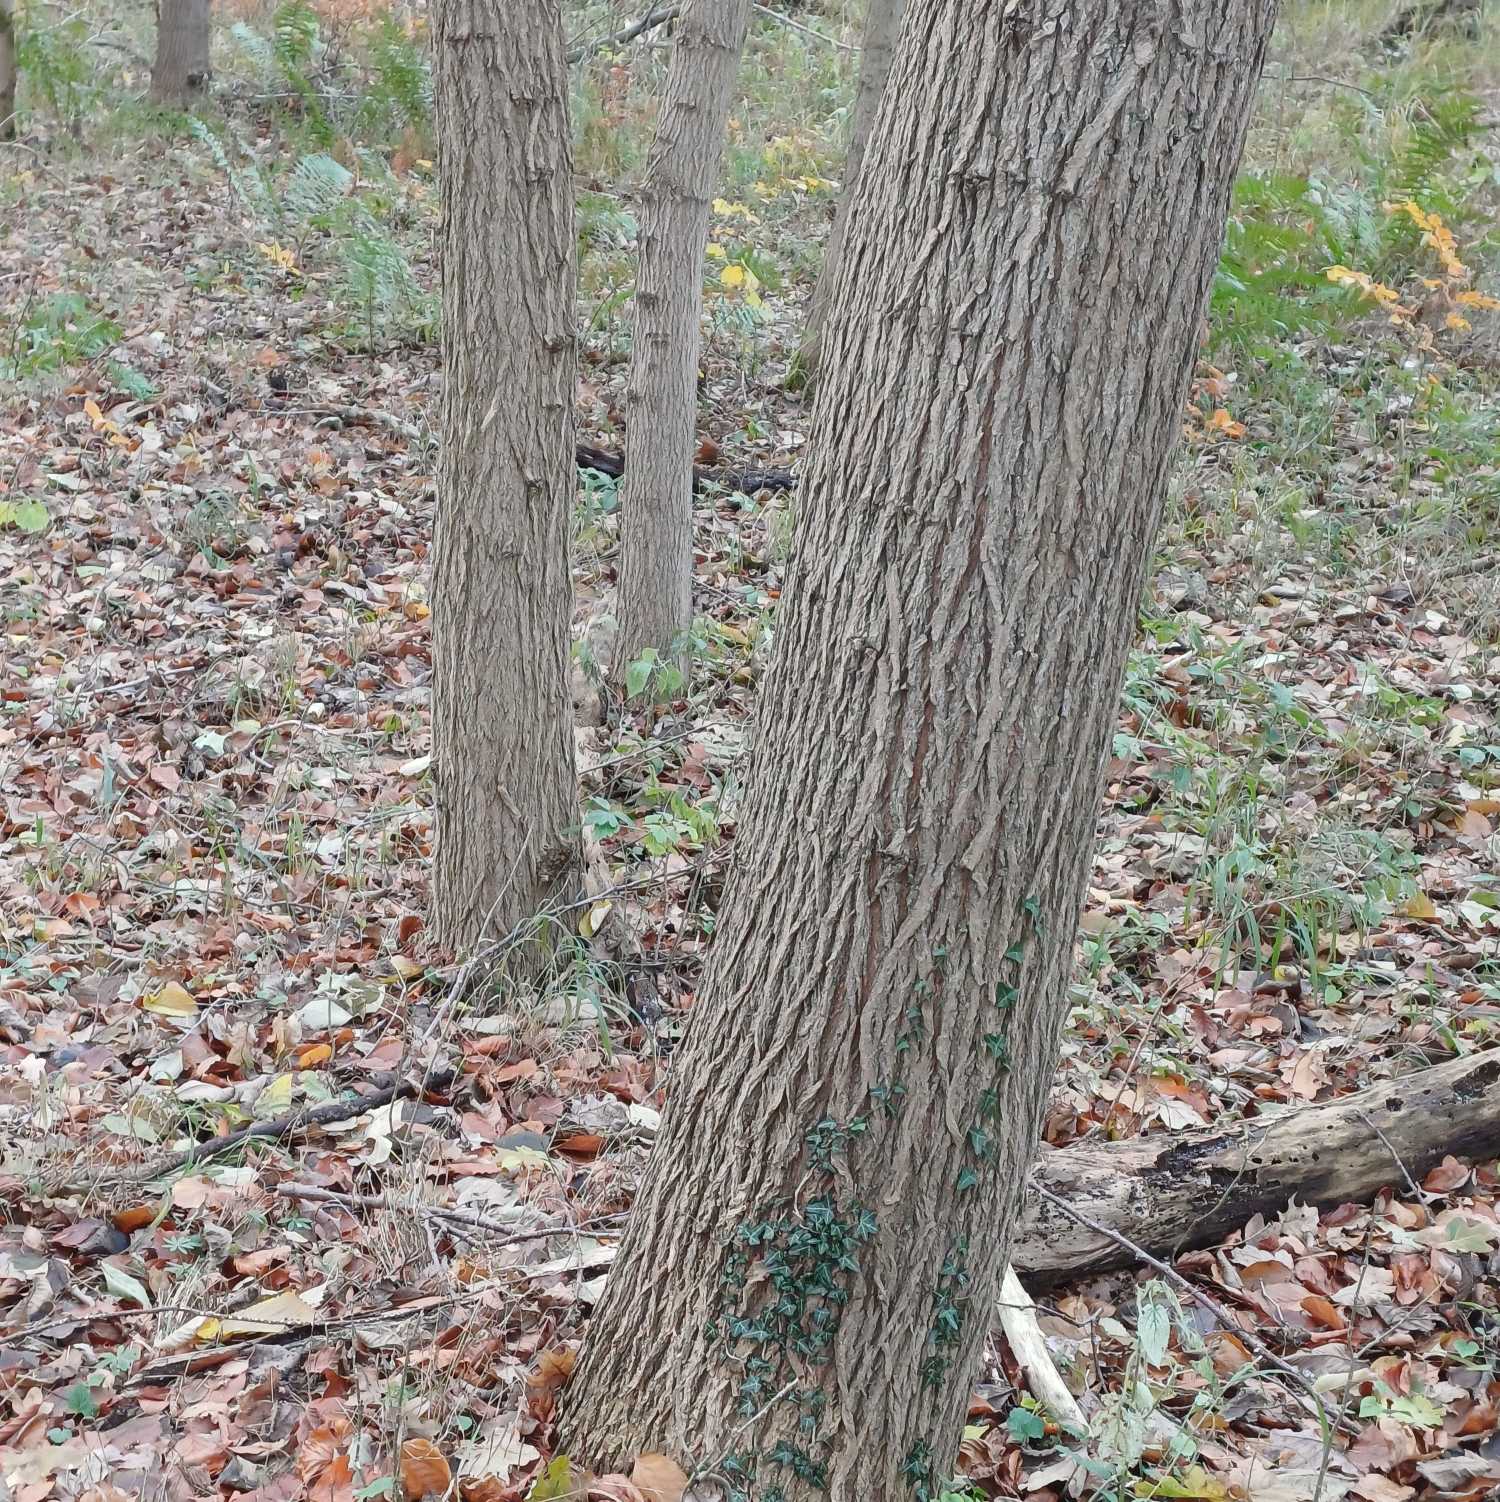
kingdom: Plantae
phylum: Tracheophyta
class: Magnoliopsida
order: Rosales
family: Ulmaceae
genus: Ulmus
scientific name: Ulmus glabra
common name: Skov-elm/storbladet elm
